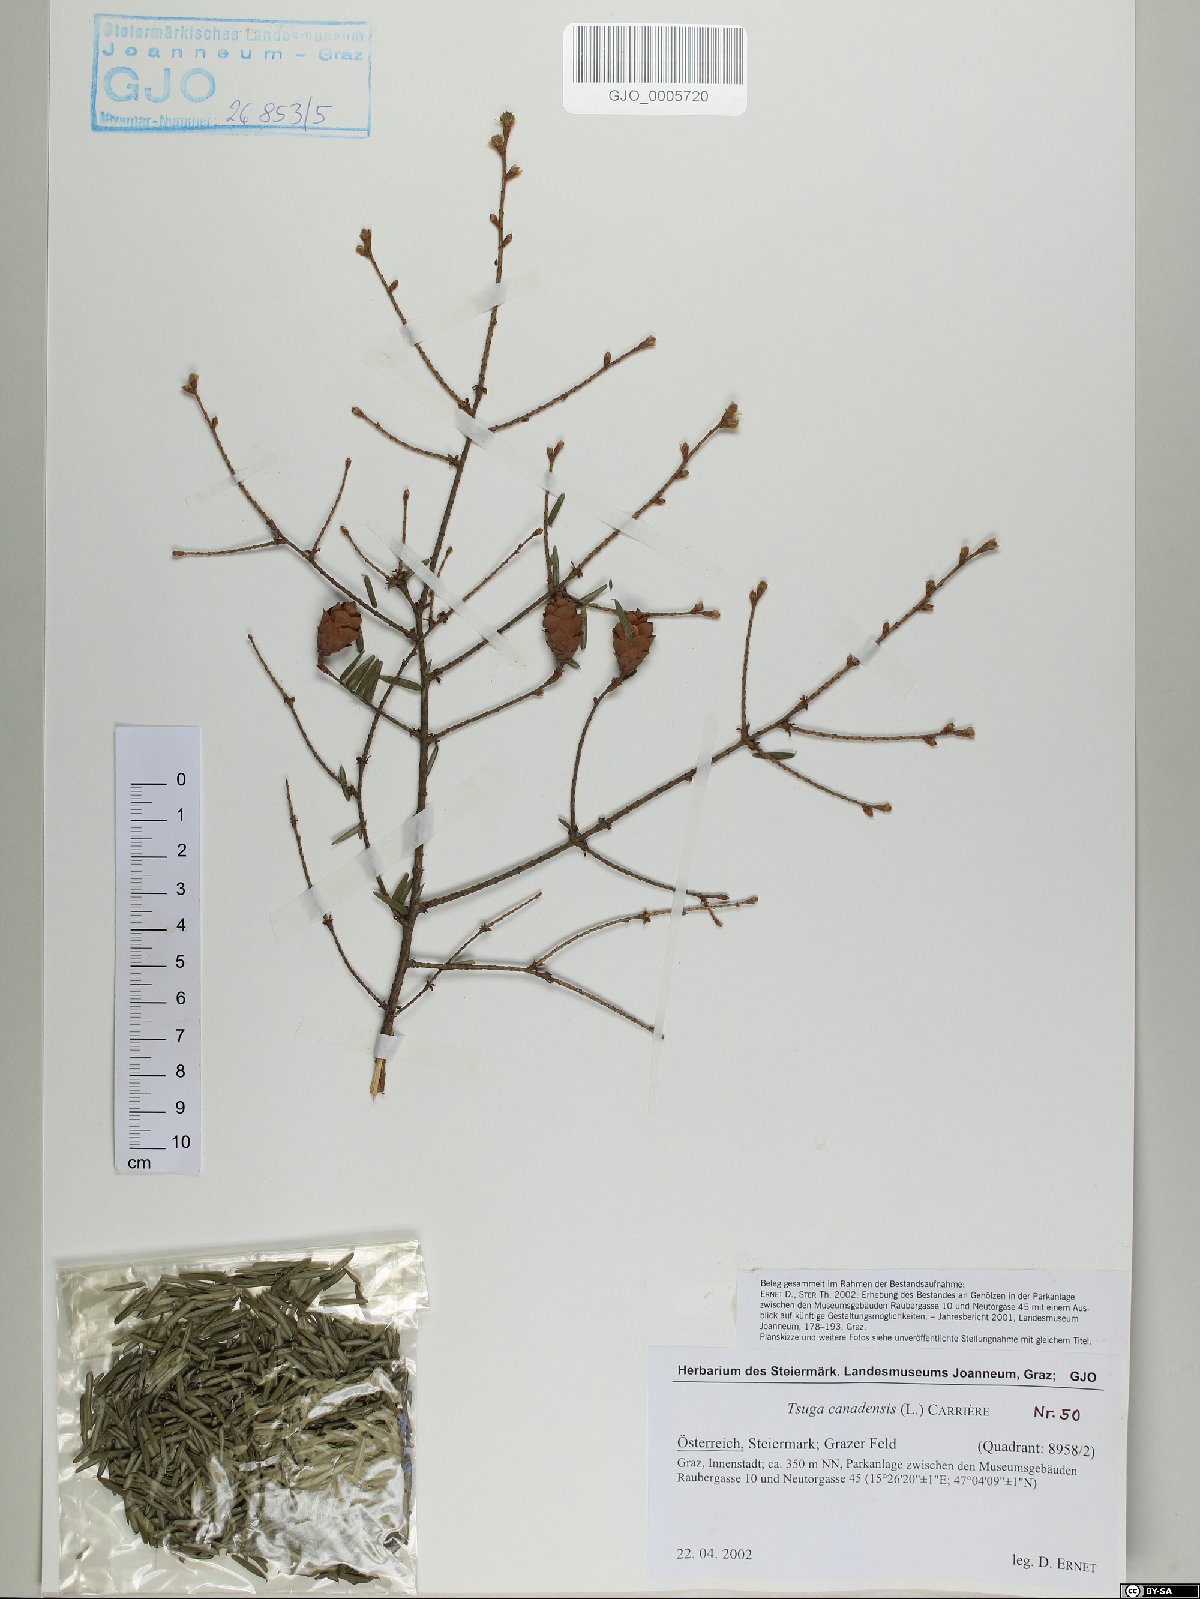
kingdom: Plantae
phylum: Tracheophyta
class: Pinopsida
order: Pinales
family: Pinaceae
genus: Tsuga
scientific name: Tsuga canadensis
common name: Eastern hemlock
